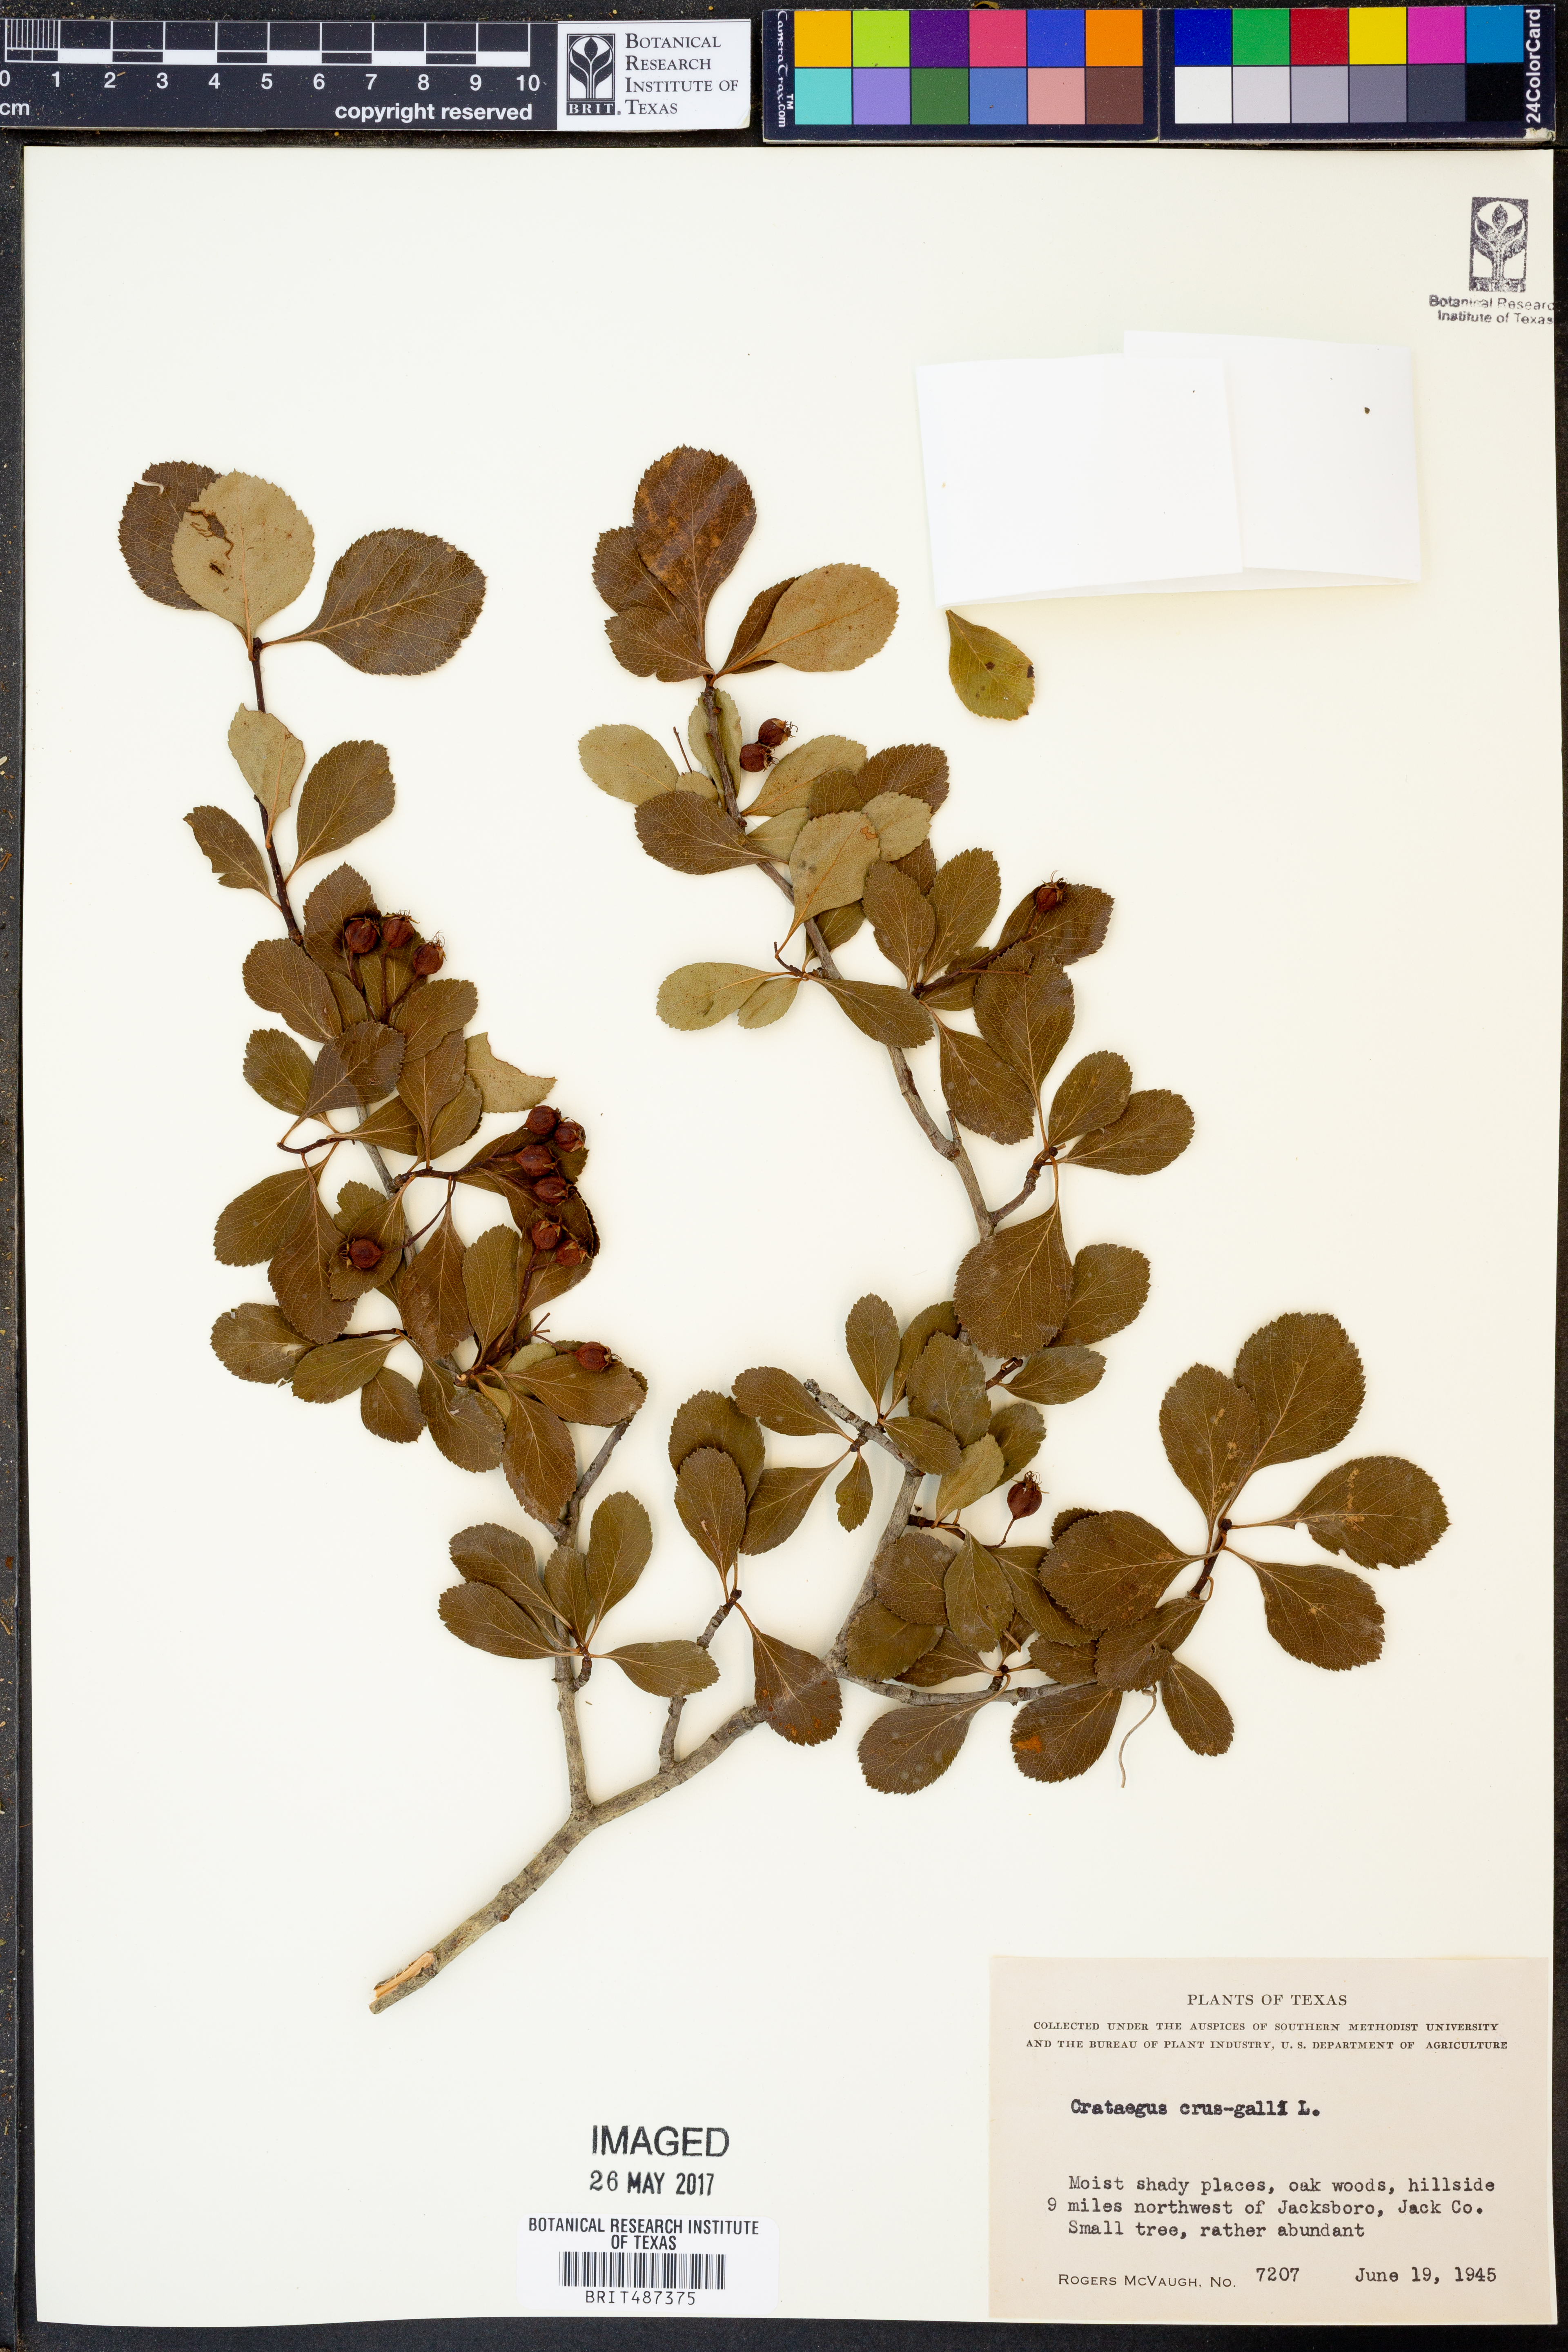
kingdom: Plantae
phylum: Tracheophyta
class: Magnoliopsida
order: Rosales
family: Rosaceae
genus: Crataegus
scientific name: Crataegus crus-galli
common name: Cockspurthorn
